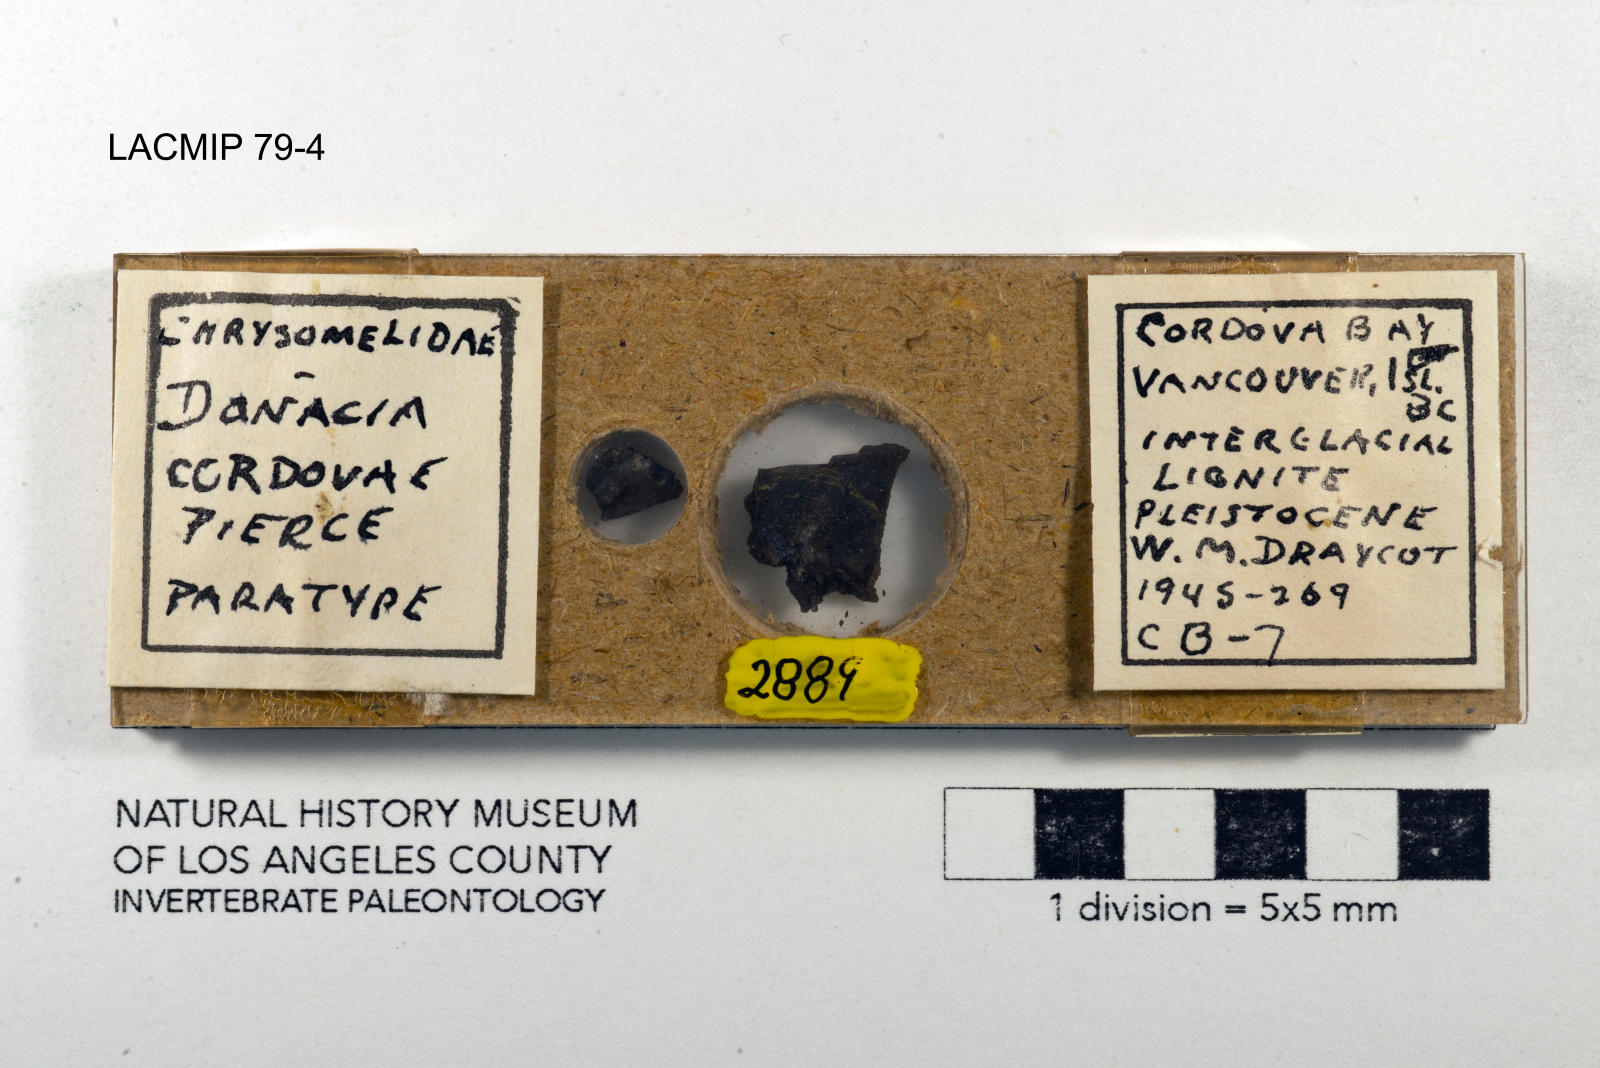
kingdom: Animalia
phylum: Arthropoda
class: Insecta
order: Coleoptera
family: Chrysomelidae
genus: Donacia
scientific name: Donacia cordovae
